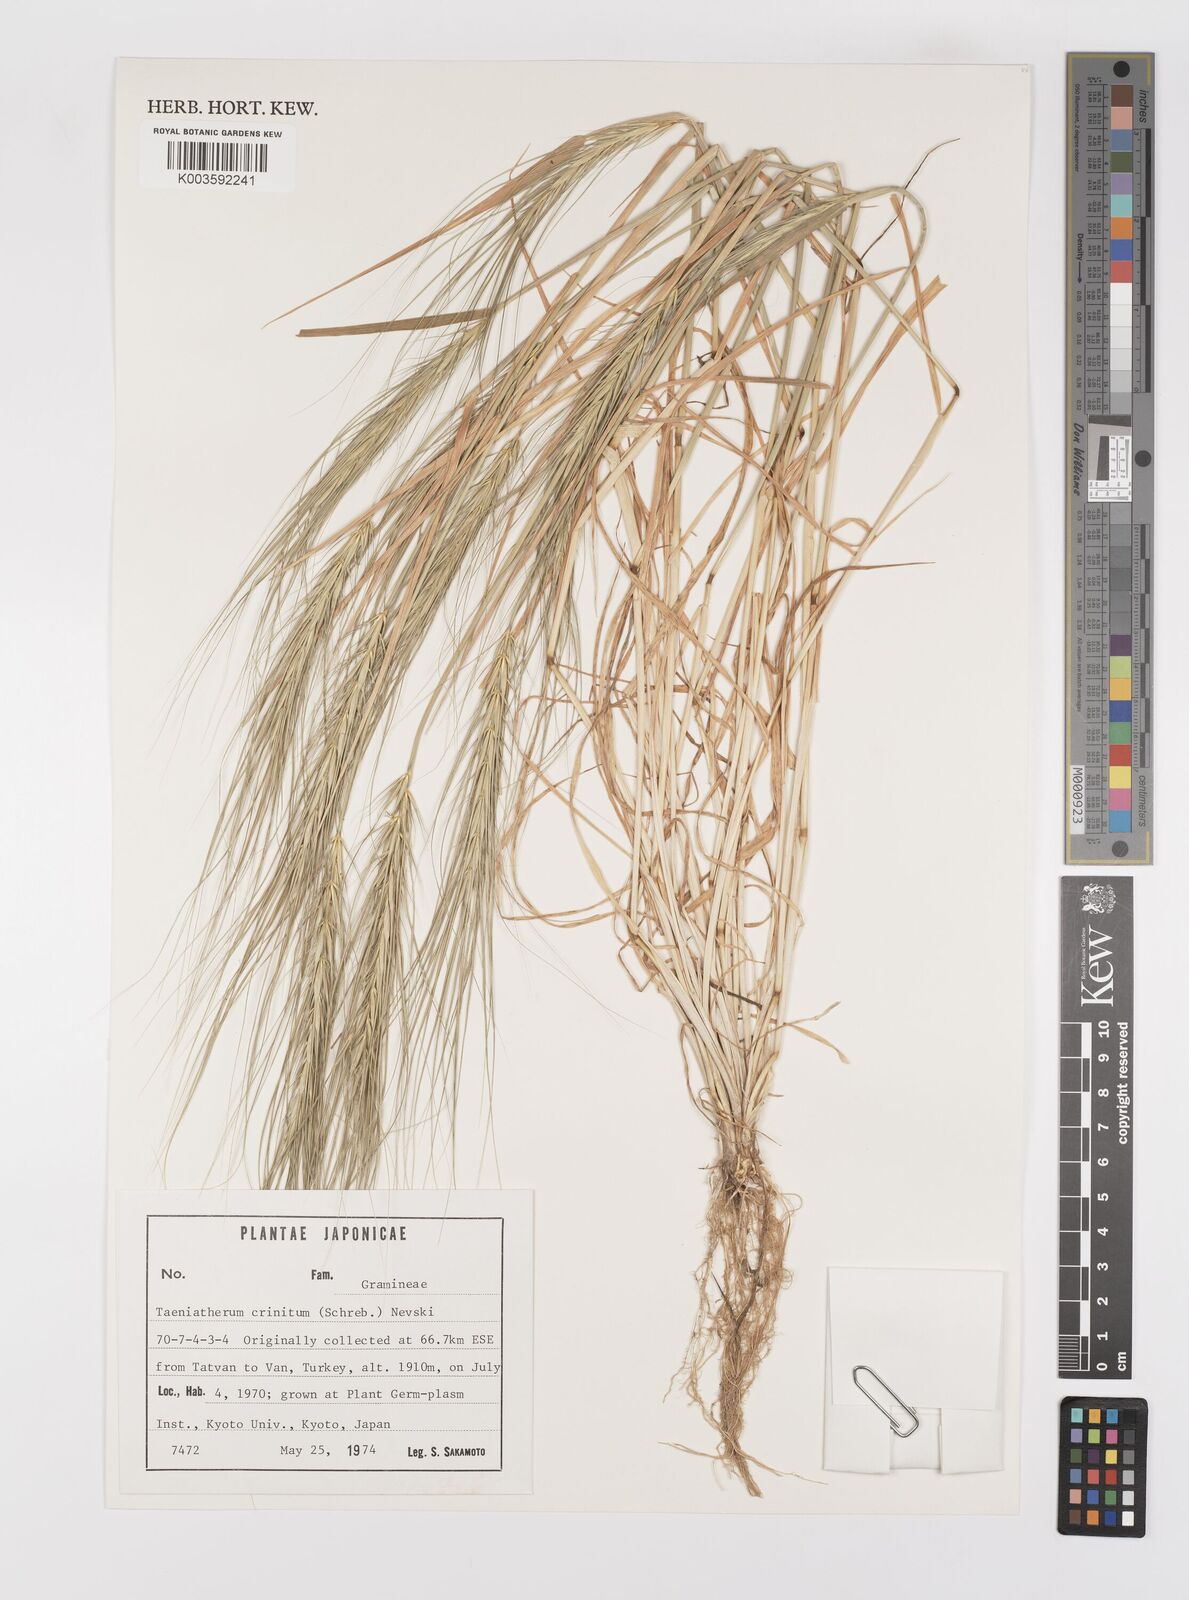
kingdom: Plantae
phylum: Tracheophyta
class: Liliopsida
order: Poales
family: Poaceae
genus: Taeniatherum
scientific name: Taeniatherum caput-medusae
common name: Medusahead
